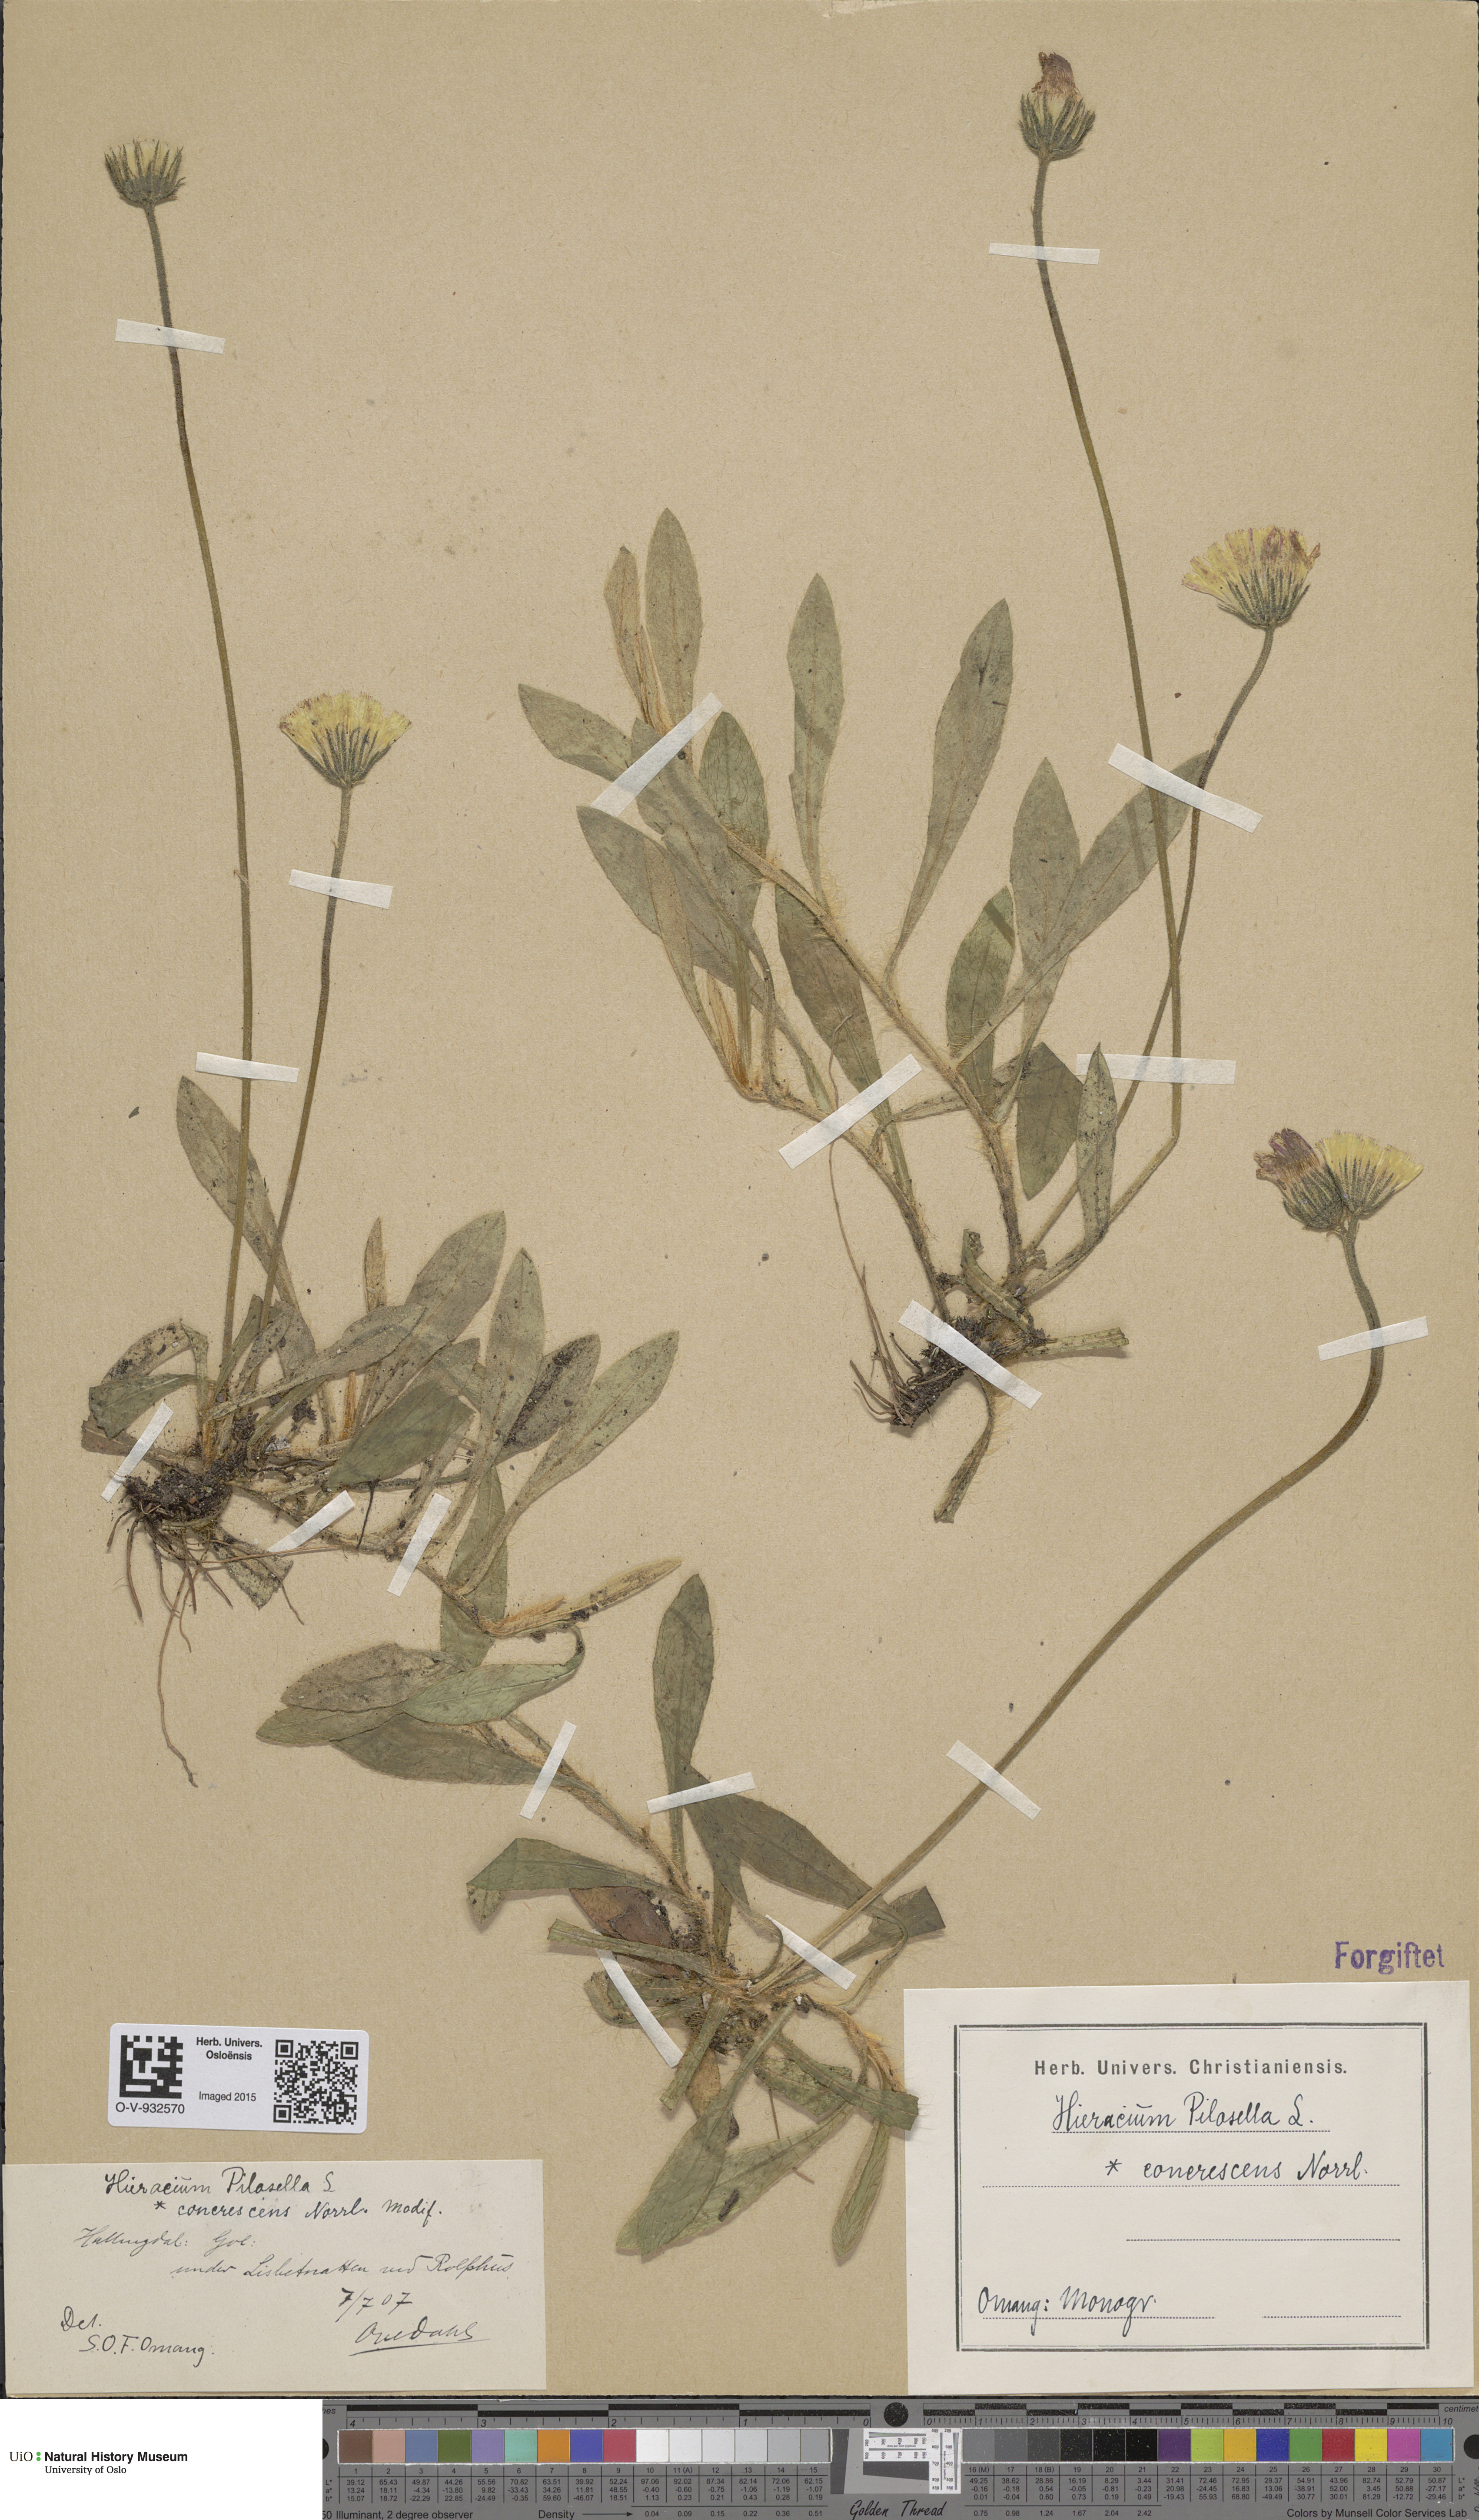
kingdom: Plantae
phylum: Tracheophyta
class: Magnoliopsida
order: Asterales
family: Asteraceae
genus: Pilosella
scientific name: Pilosella officinarum
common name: Mouse-ear hawkweed
